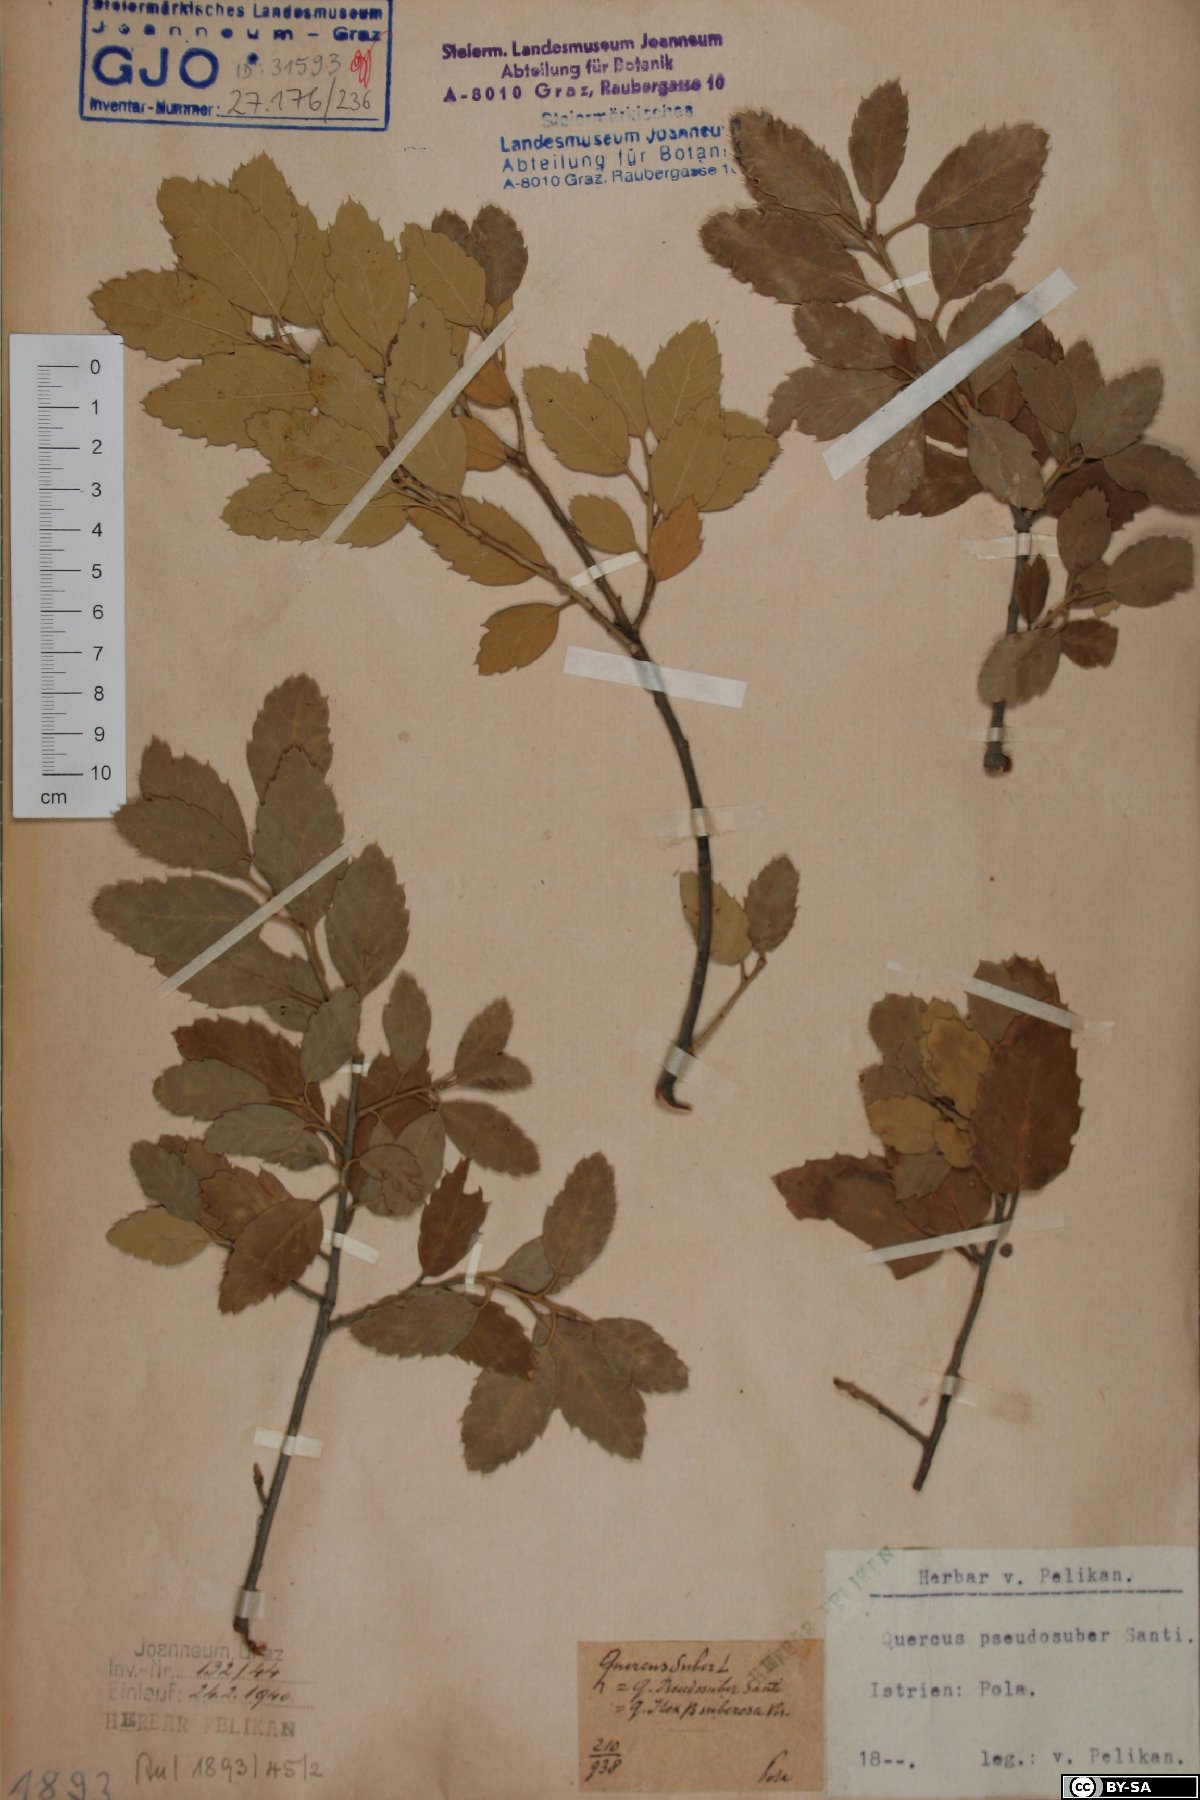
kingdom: Plantae
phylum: Tracheophyta
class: Magnoliopsida
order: Fagales
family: Fagaceae
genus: Quercus
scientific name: Quercus crenata
